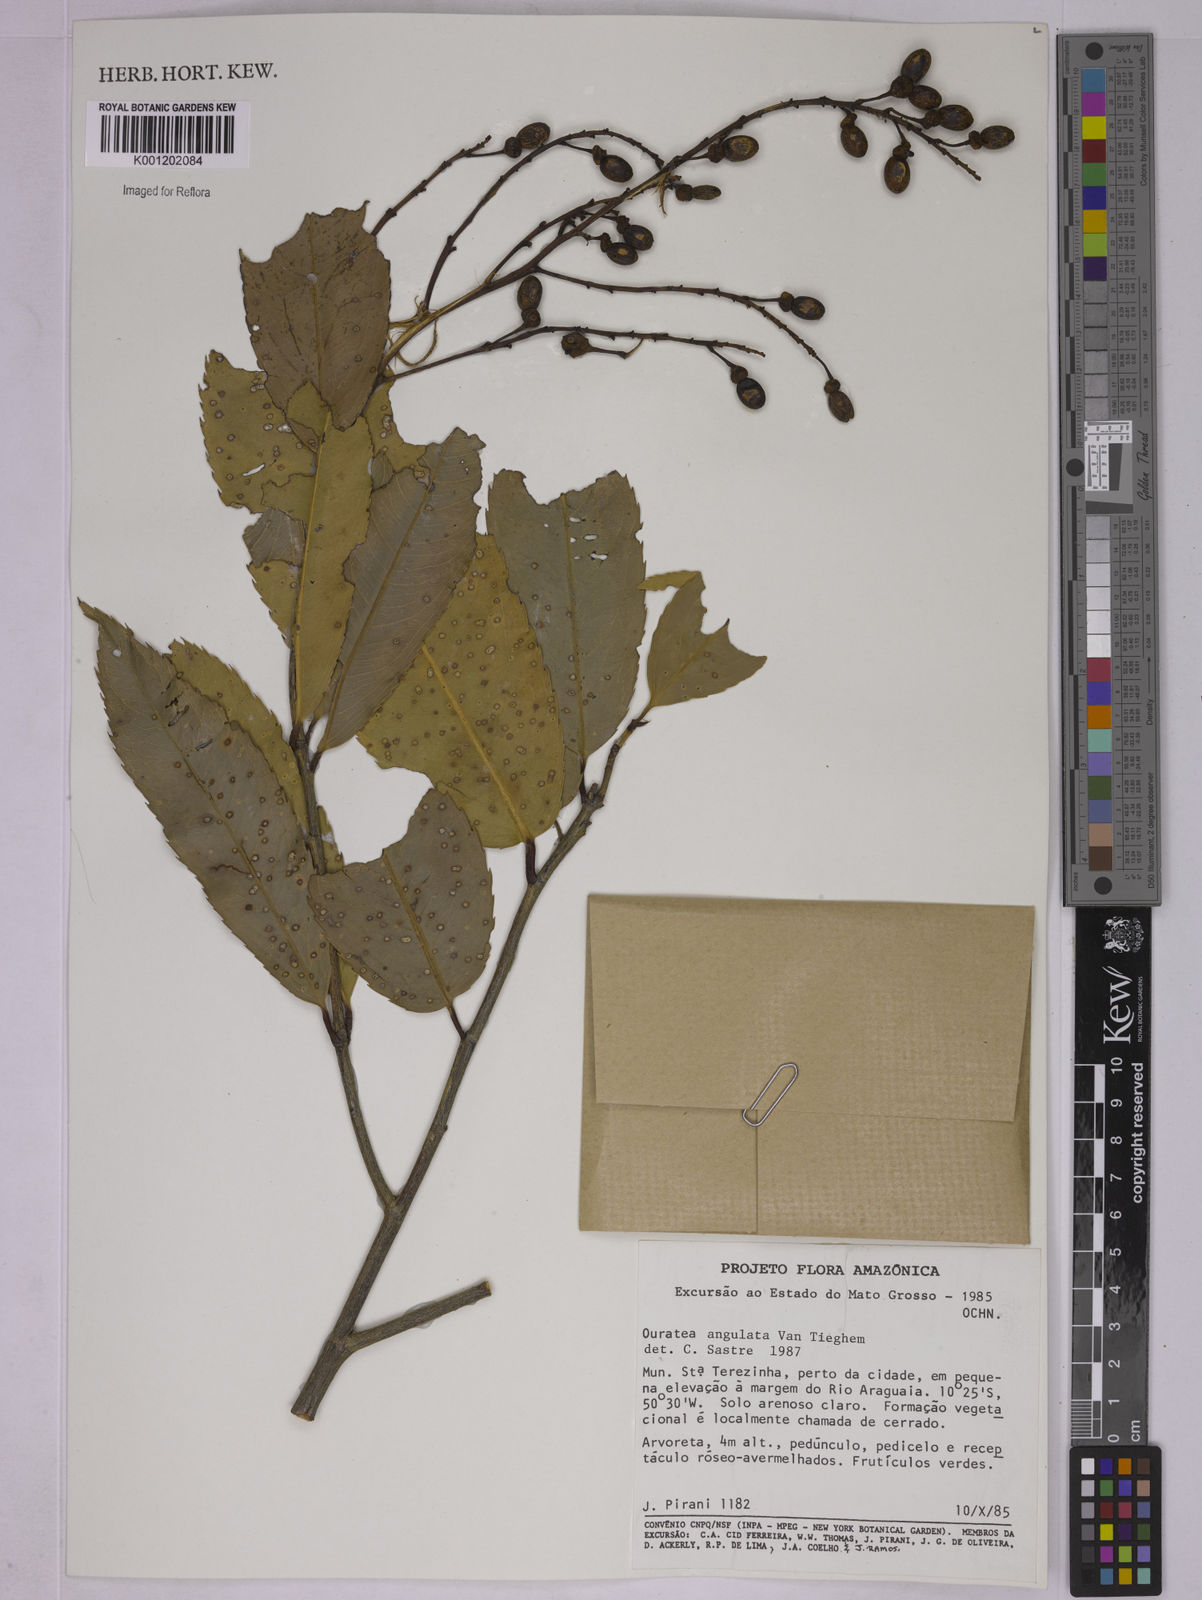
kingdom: Plantae
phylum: Tracheophyta
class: Magnoliopsida
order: Malpighiales
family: Ochnaceae
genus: Gomphia
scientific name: Gomphia obtusifolia
